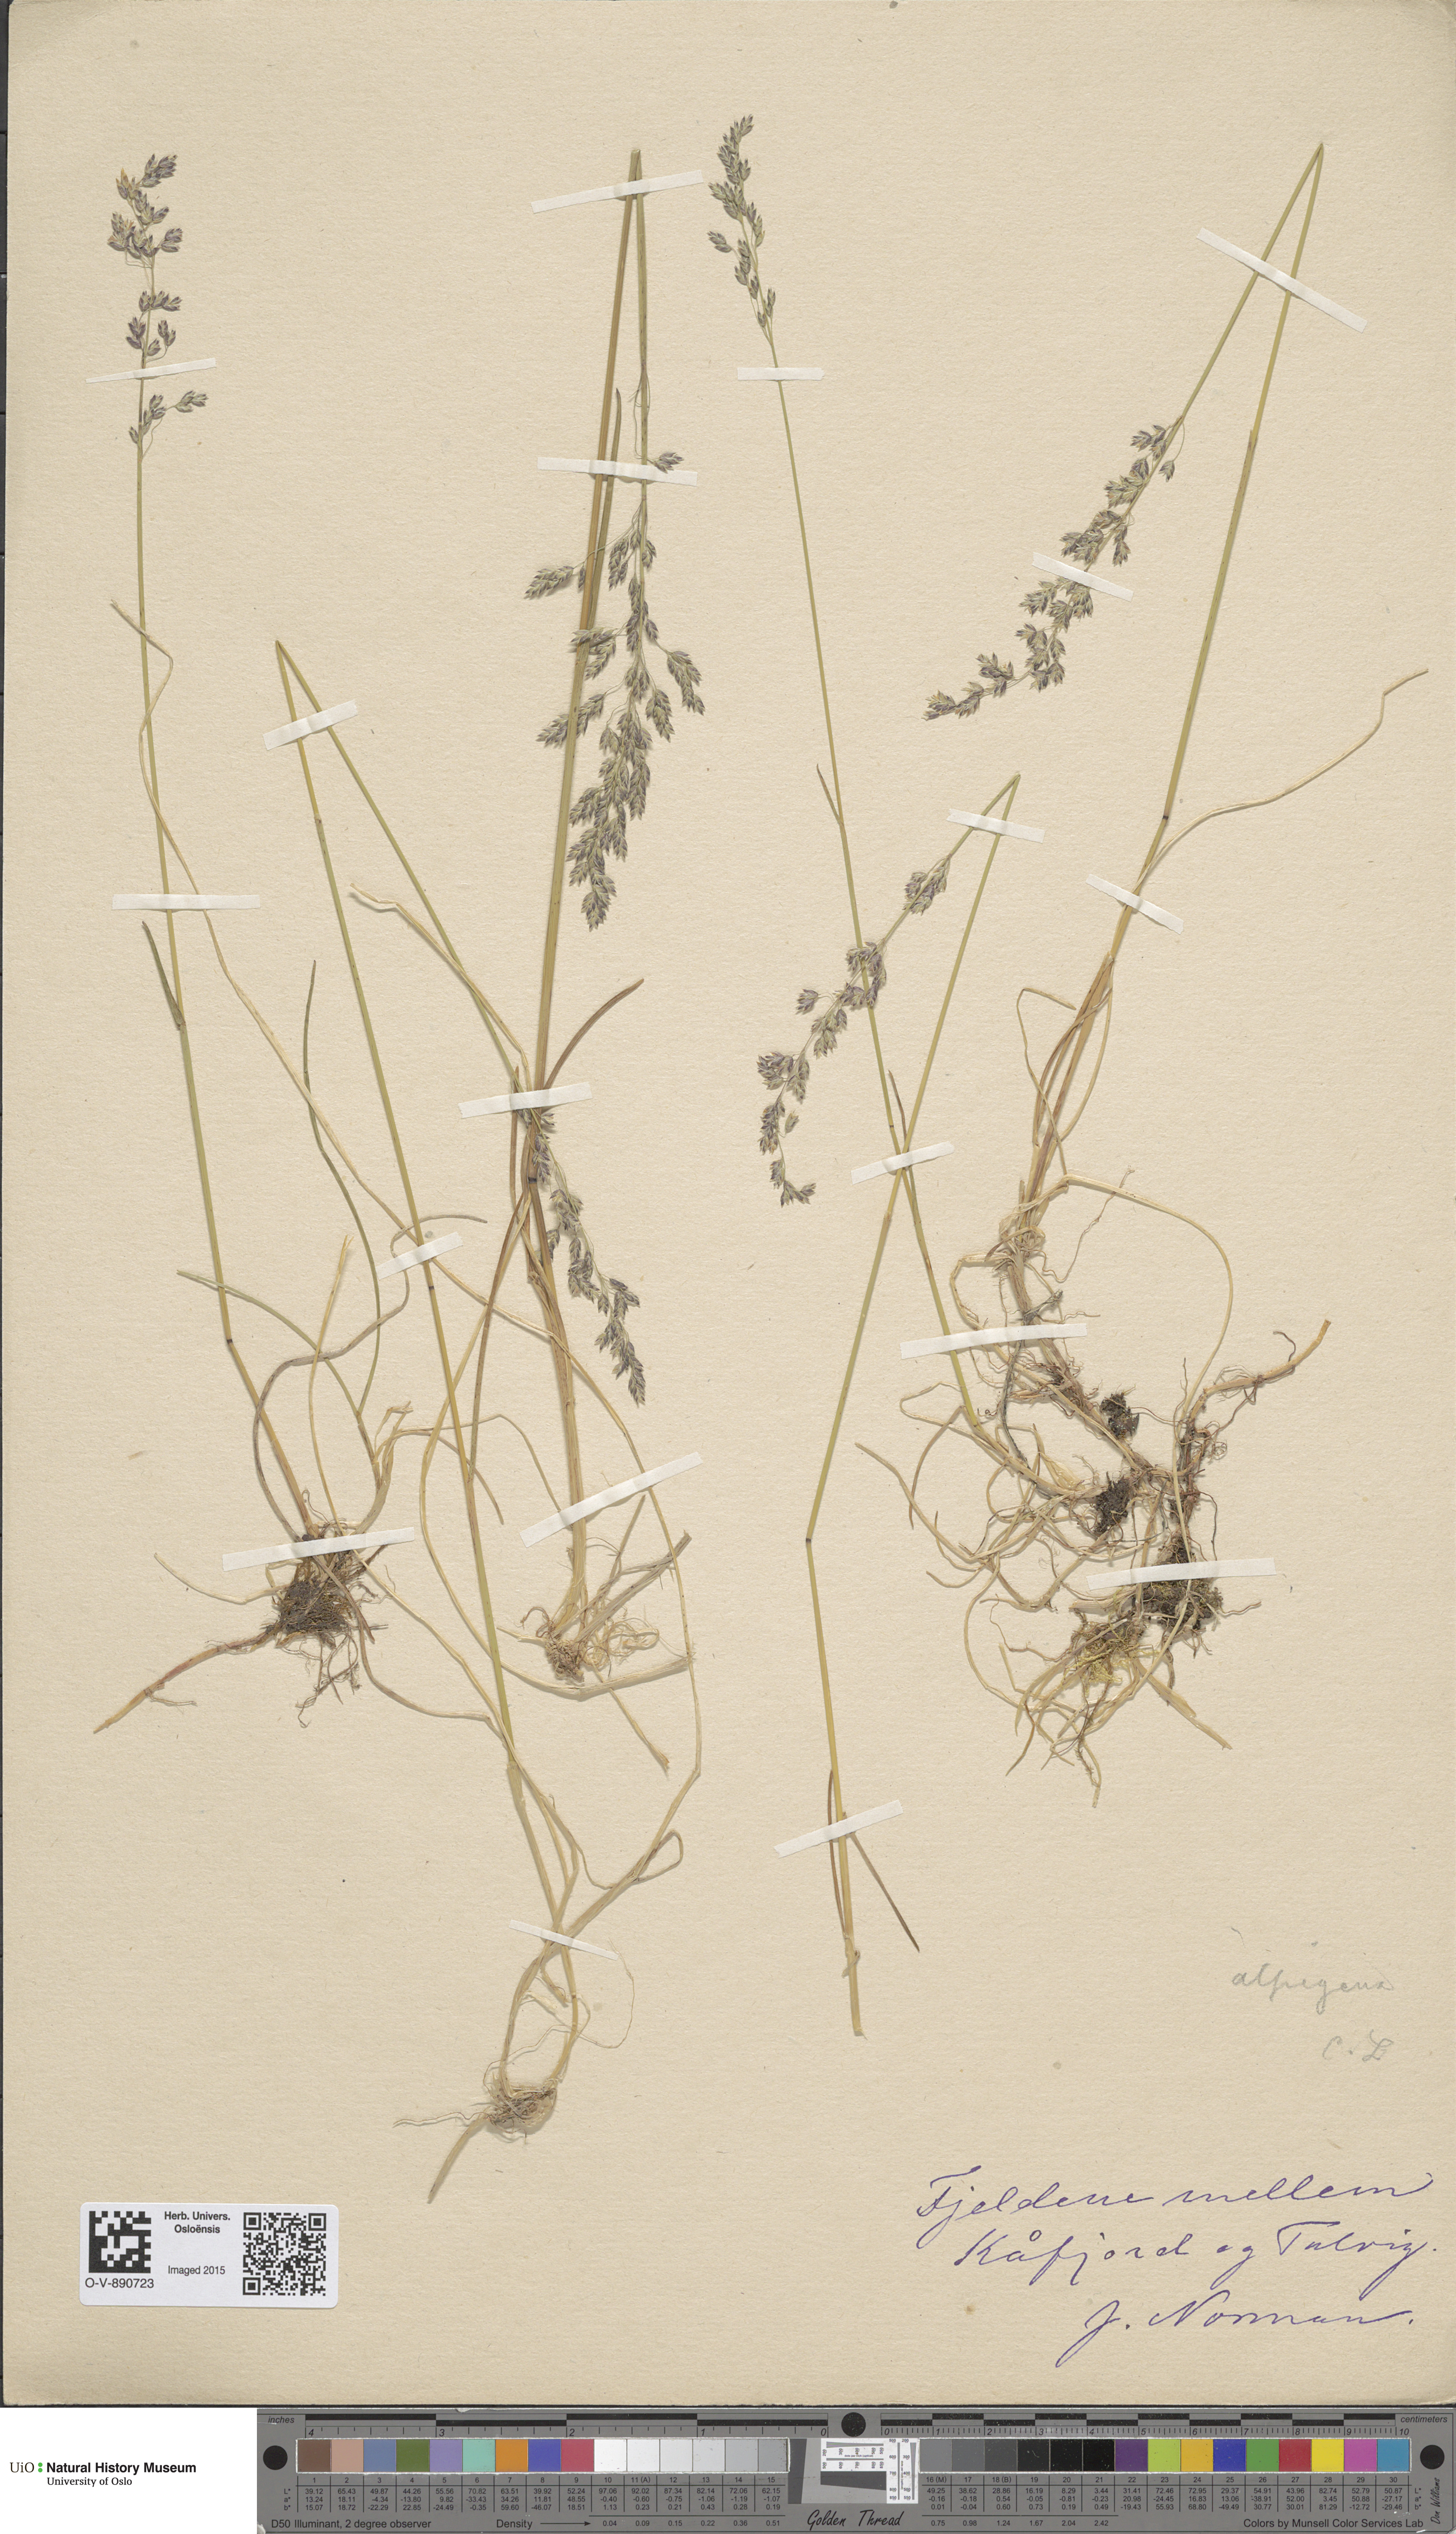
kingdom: Plantae
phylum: Tracheophyta
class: Liliopsida
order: Poales
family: Poaceae
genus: Poa
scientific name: Poa alpigena
